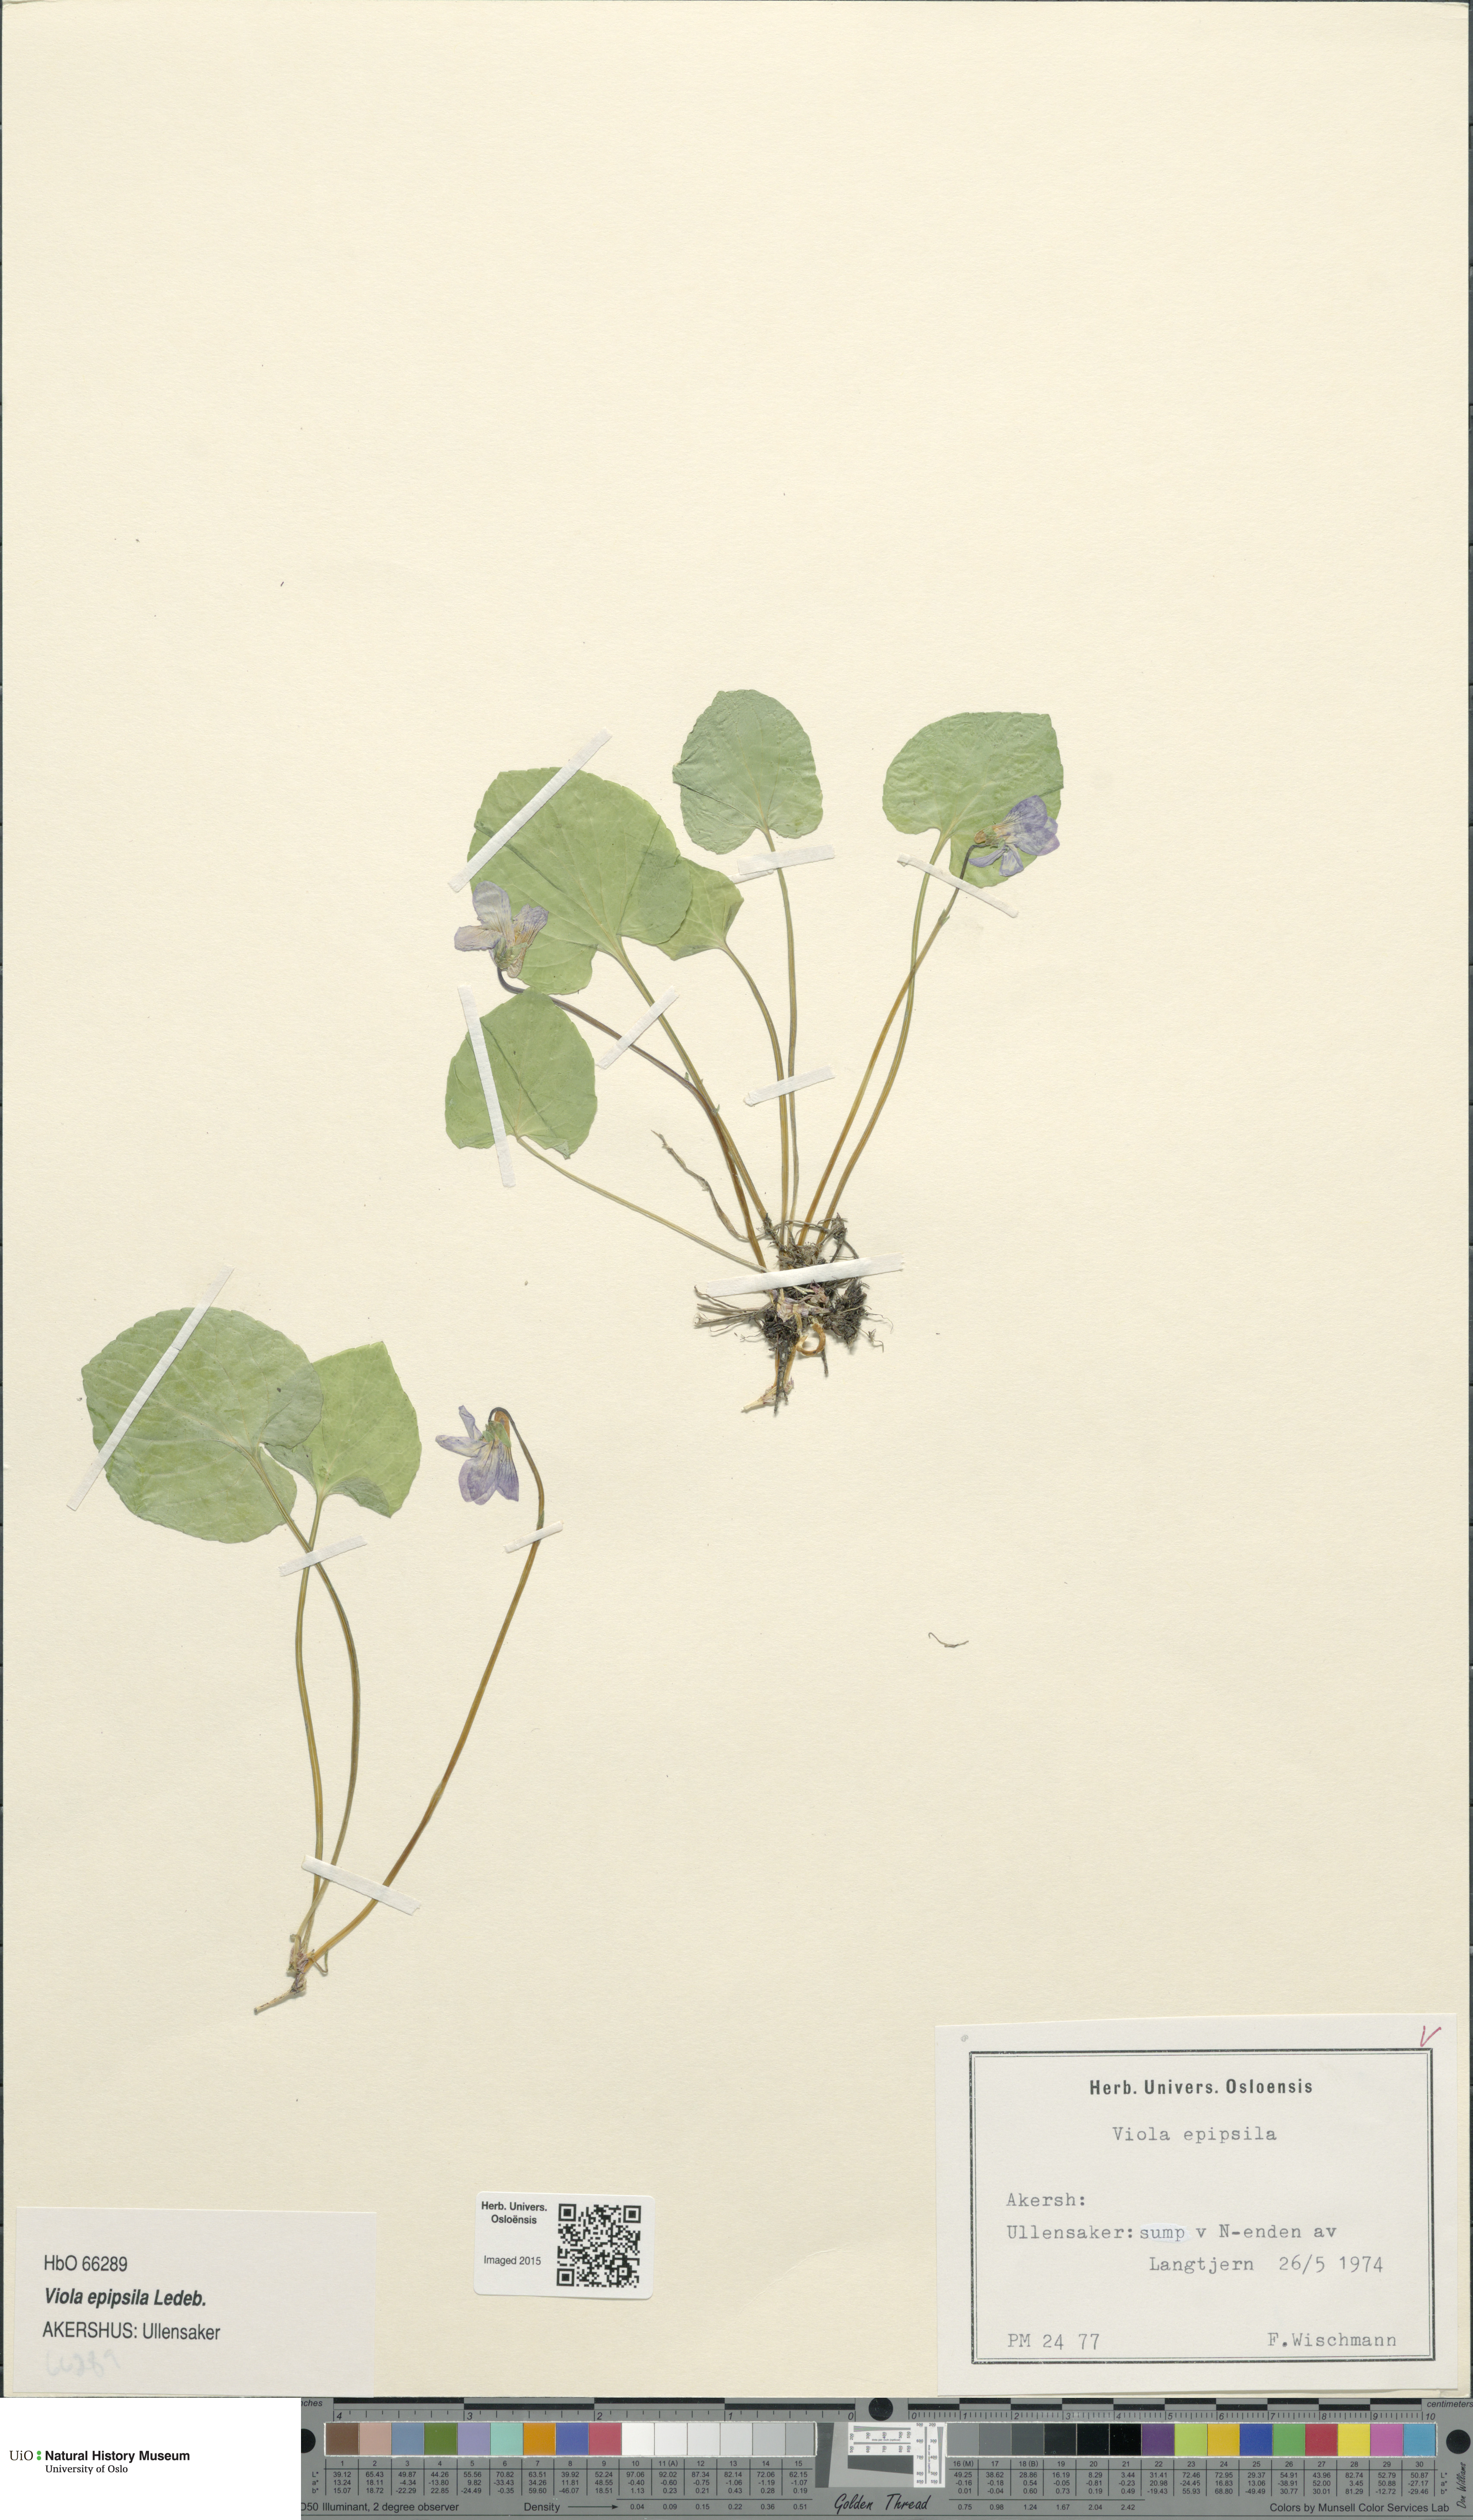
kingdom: Plantae
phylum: Tracheophyta
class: Magnoliopsida
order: Malpighiales
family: Violaceae
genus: Viola
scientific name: Viola epipsila
